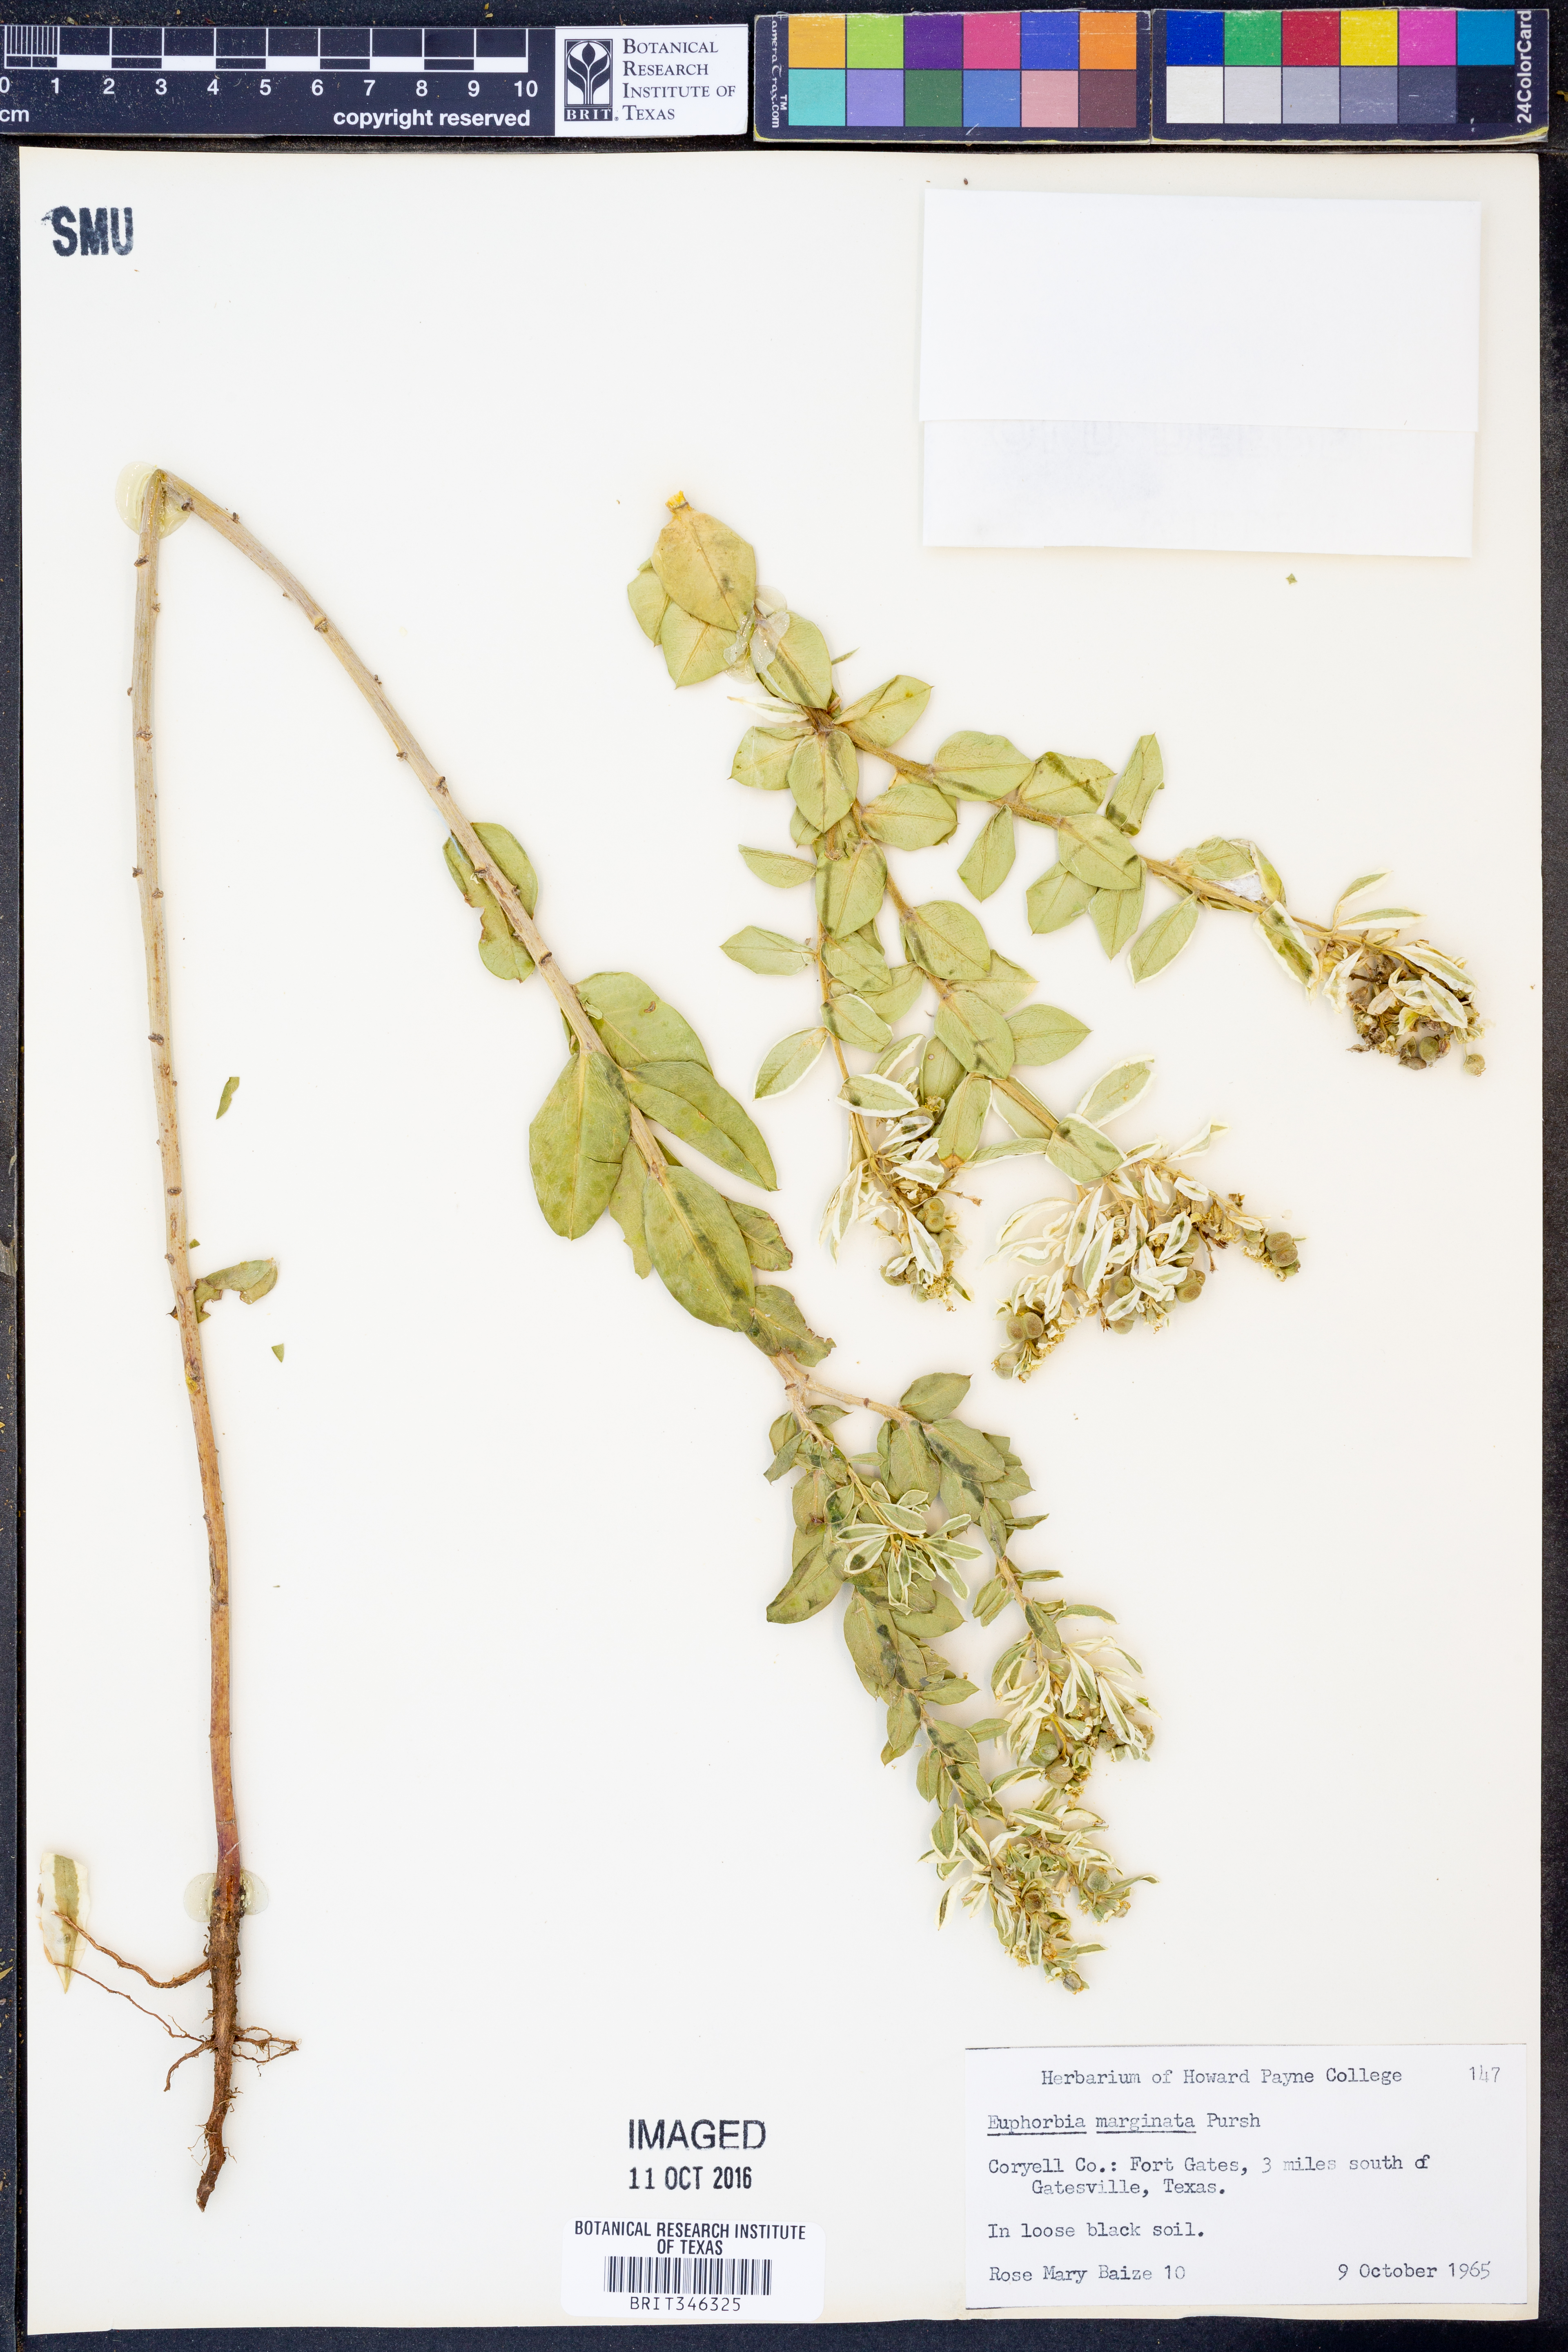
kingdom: Plantae
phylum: Tracheophyta
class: Magnoliopsida
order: Malpighiales
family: Euphorbiaceae
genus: Euphorbia
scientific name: Euphorbia marginata
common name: Ghostweed
